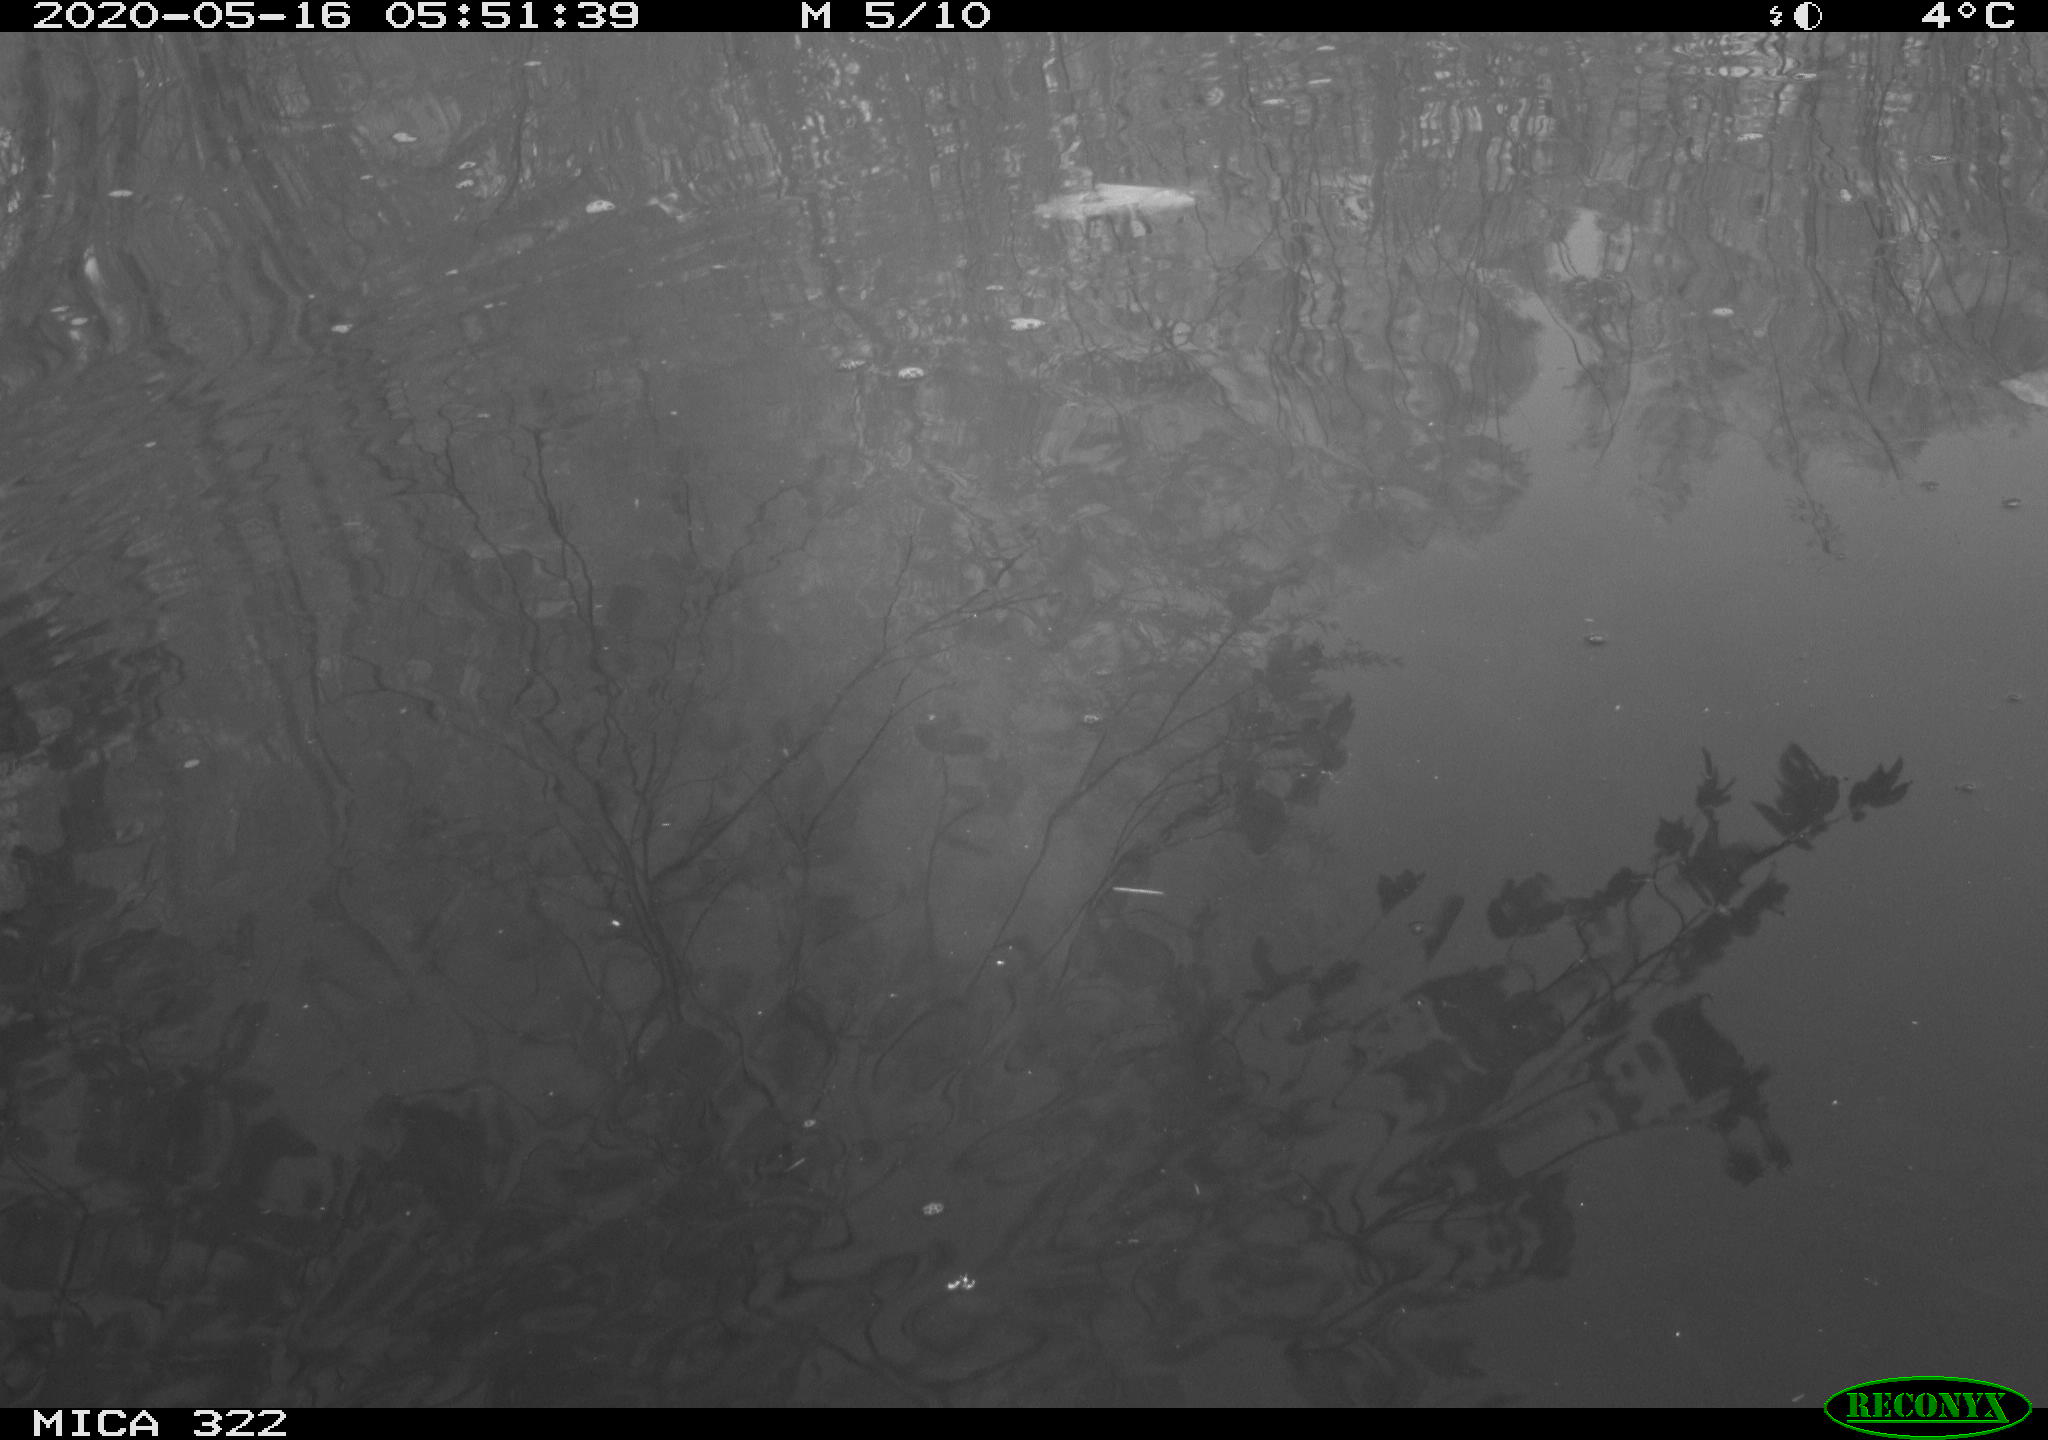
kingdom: Animalia
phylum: Chordata
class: Aves
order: Gruiformes
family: Rallidae
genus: Gallinula
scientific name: Gallinula chloropus
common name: Common moorhen
